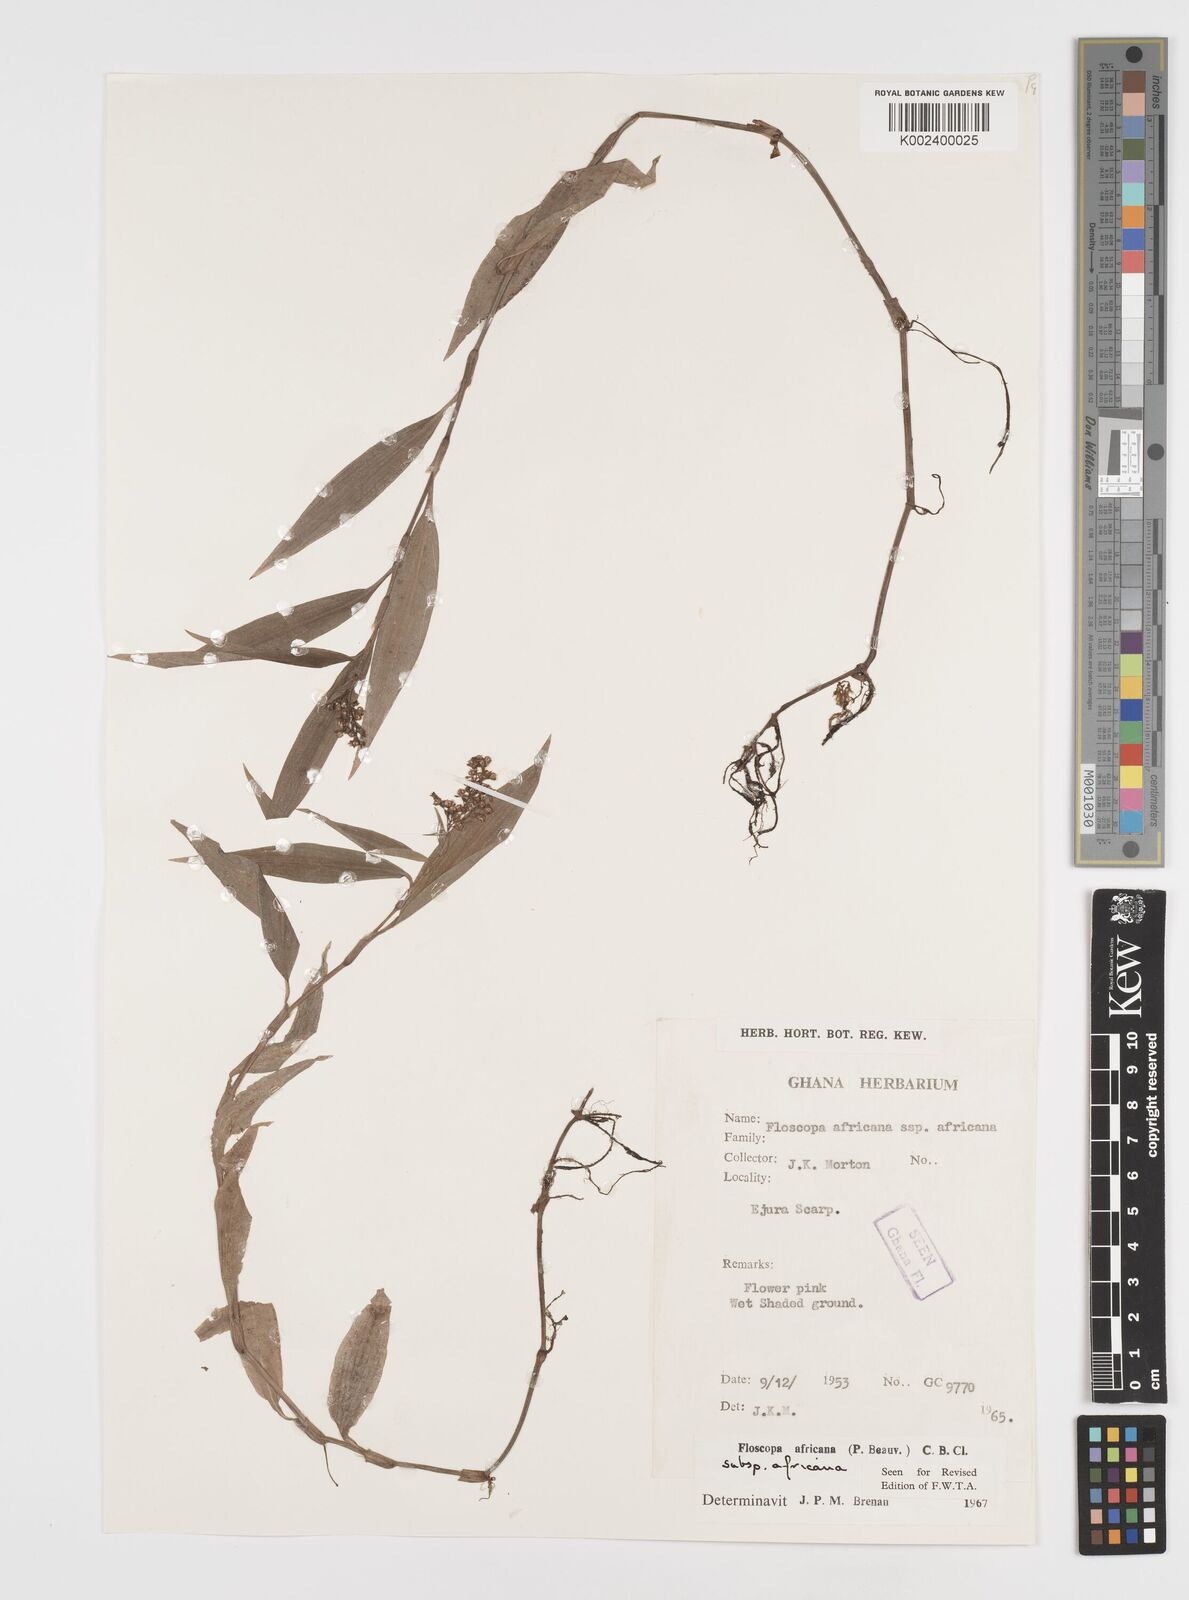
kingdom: Plantae
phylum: Tracheophyta
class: Liliopsida
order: Commelinales
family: Commelinaceae
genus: Floscopa
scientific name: Floscopa africana
